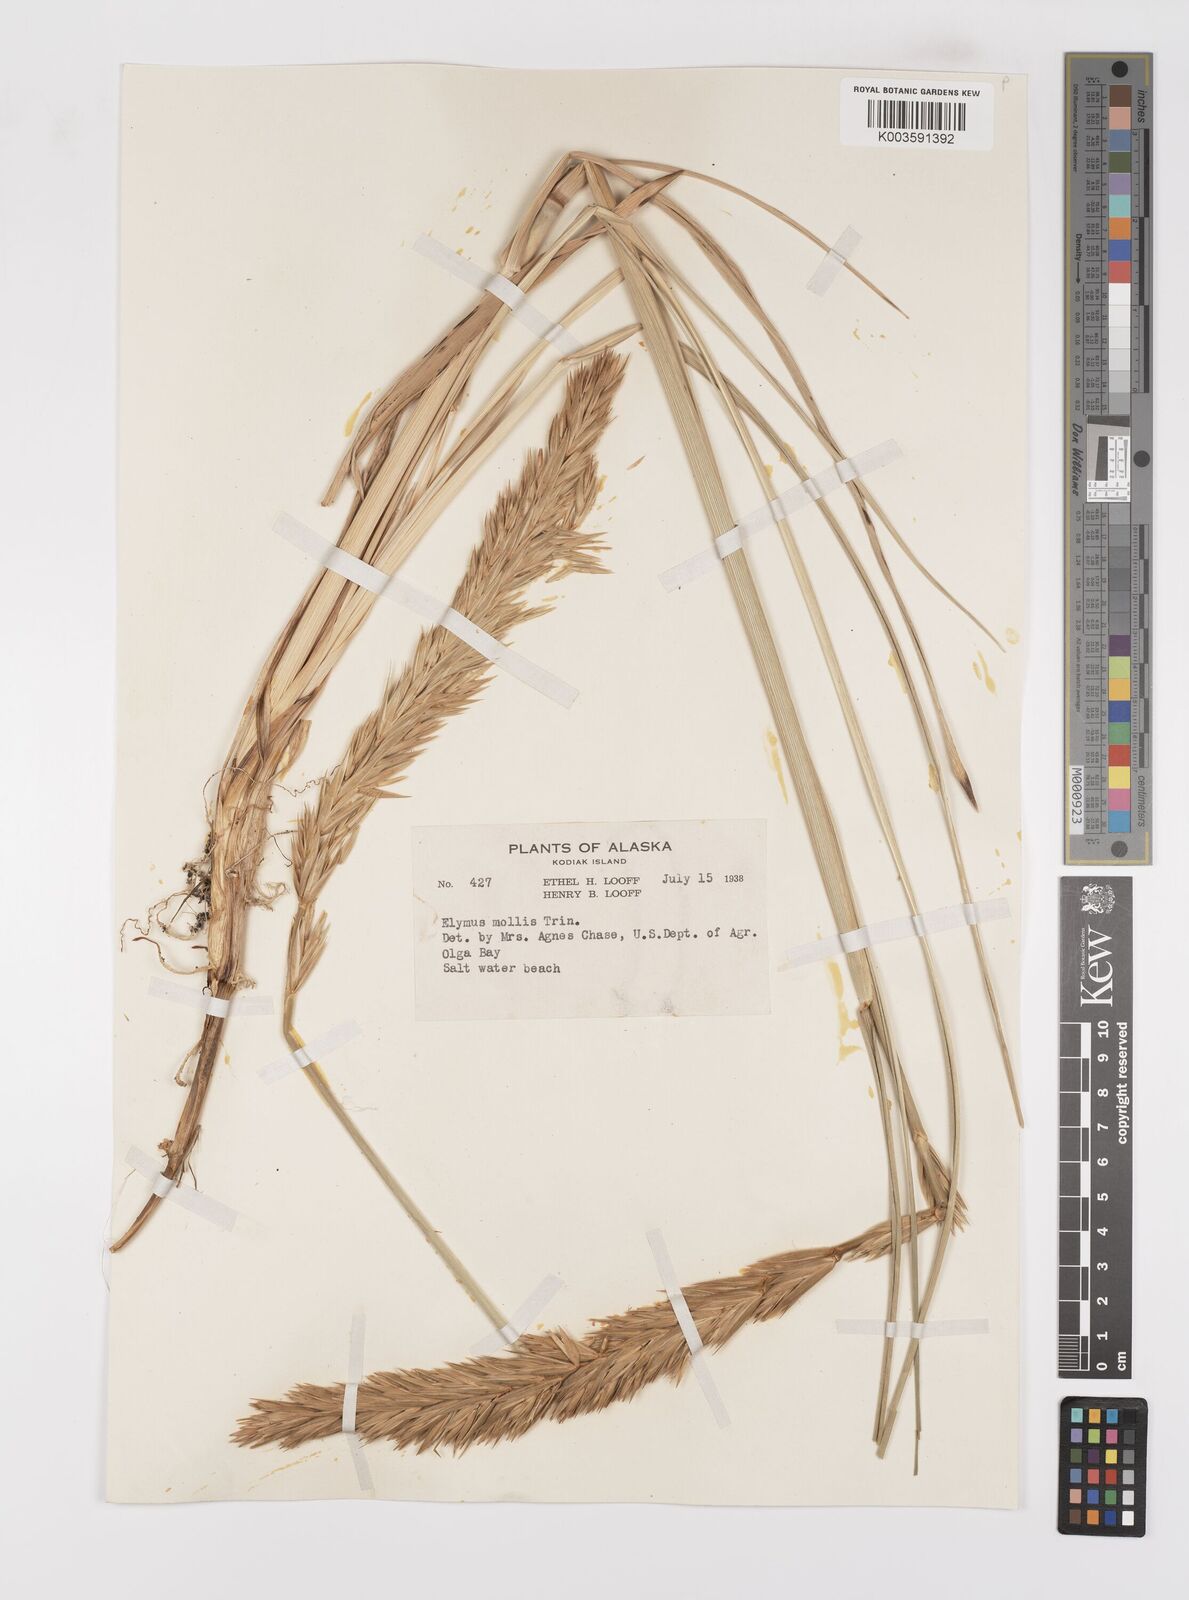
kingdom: Plantae
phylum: Tracheophyta
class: Liliopsida
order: Poales
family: Poaceae
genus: Leymus
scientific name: Leymus mollis
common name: American dune grass
